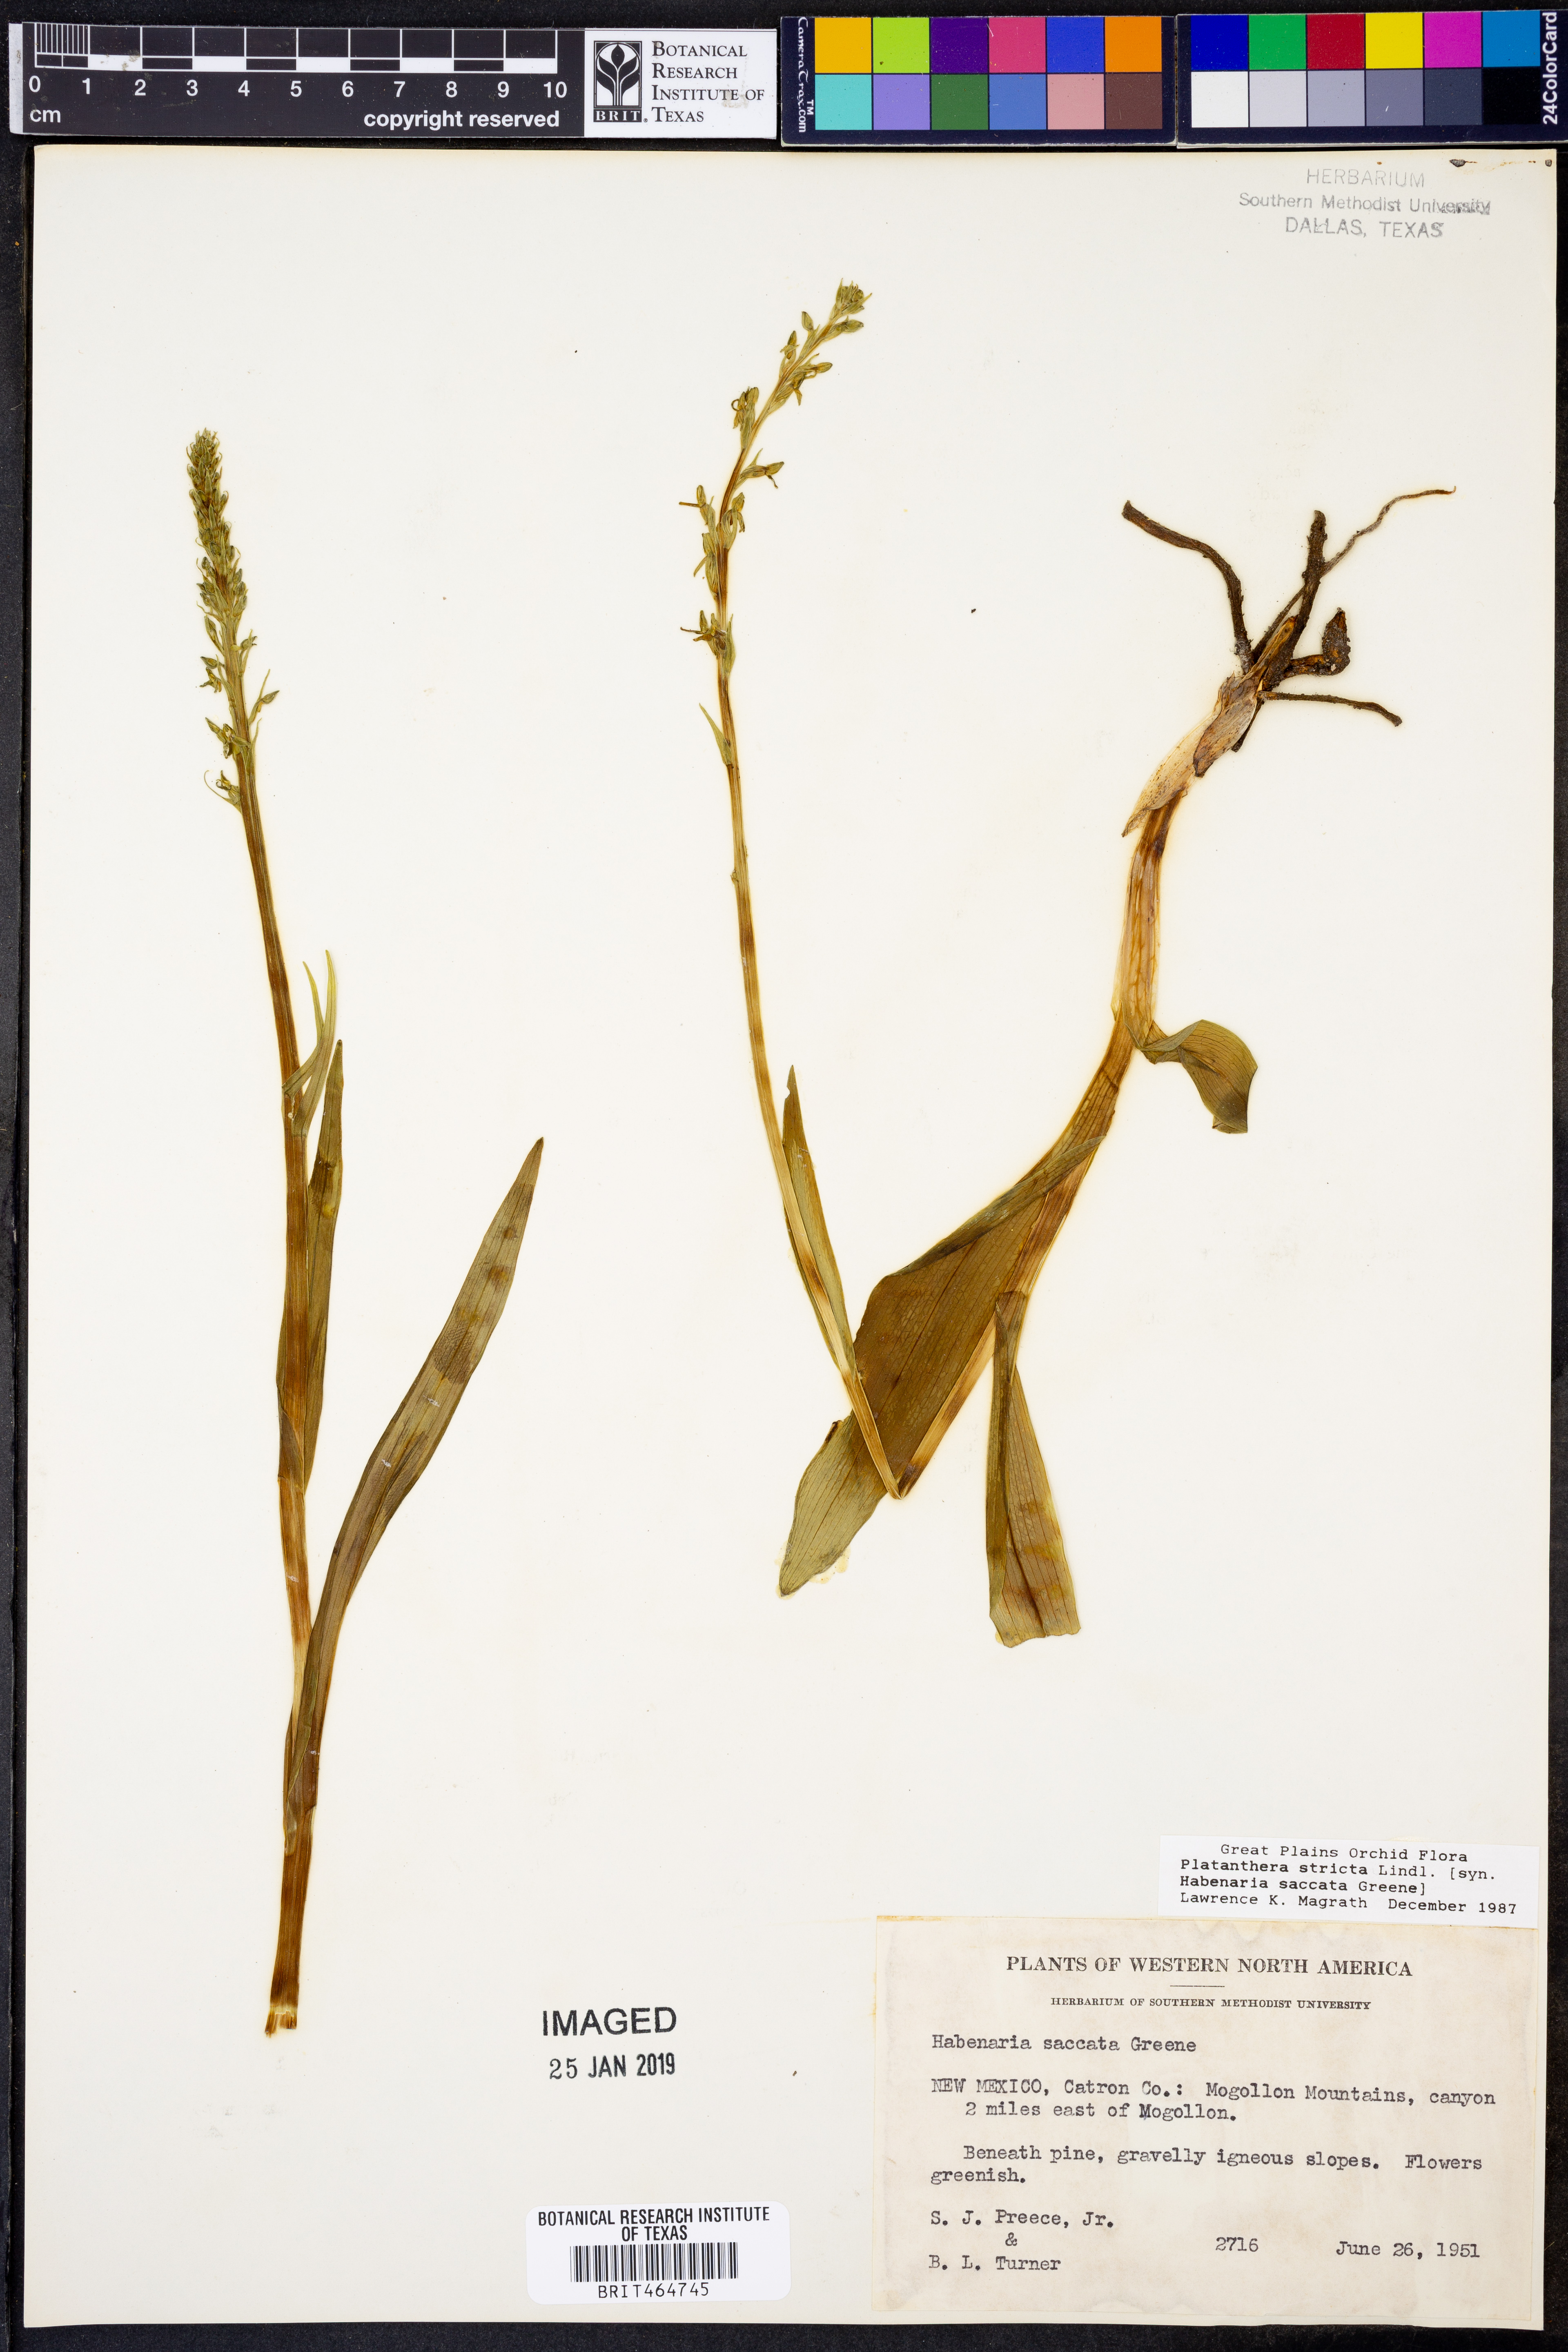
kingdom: Plantae
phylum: Tracheophyta
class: Liliopsida
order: Asparagales
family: Orchidaceae
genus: Platanthera
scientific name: Platanthera stricta
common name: Slender bog orchid
